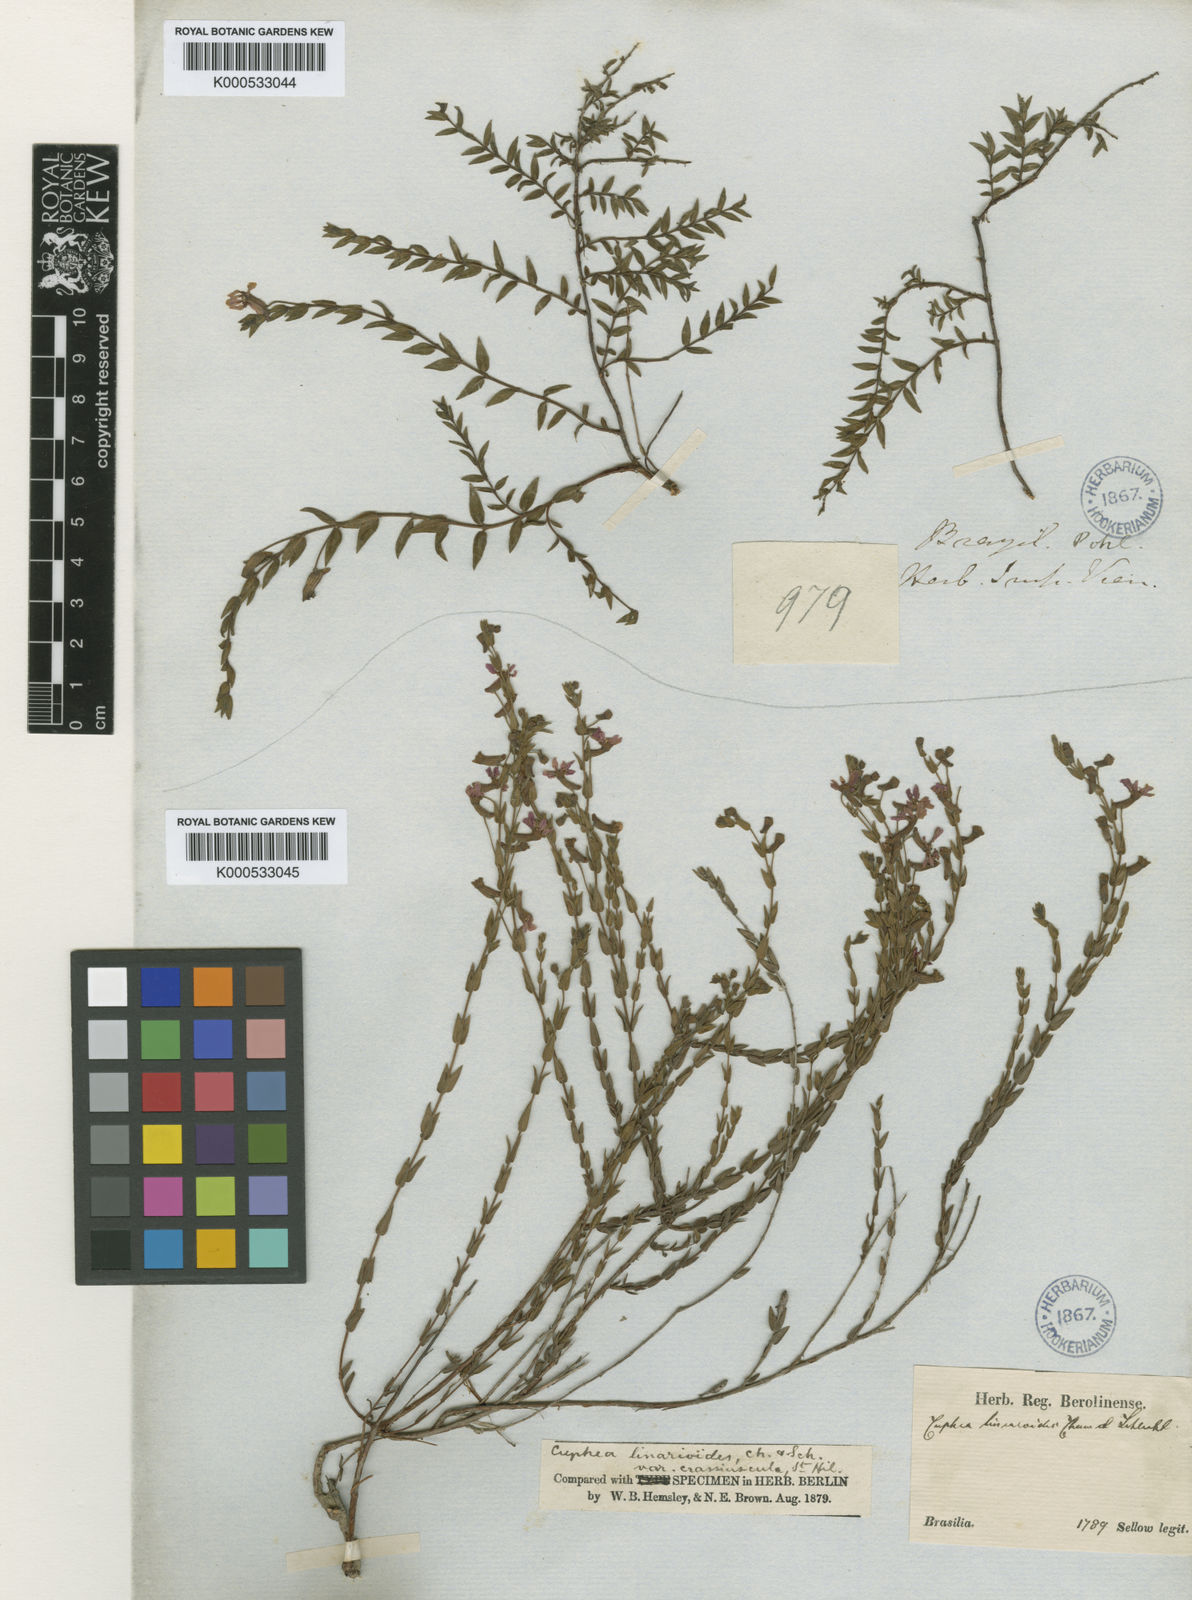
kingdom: Plantae
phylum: Tracheophyta
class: Magnoliopsida
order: Myrtales
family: Lythraceae
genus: Cuphea
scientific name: Cuphea linarioides
